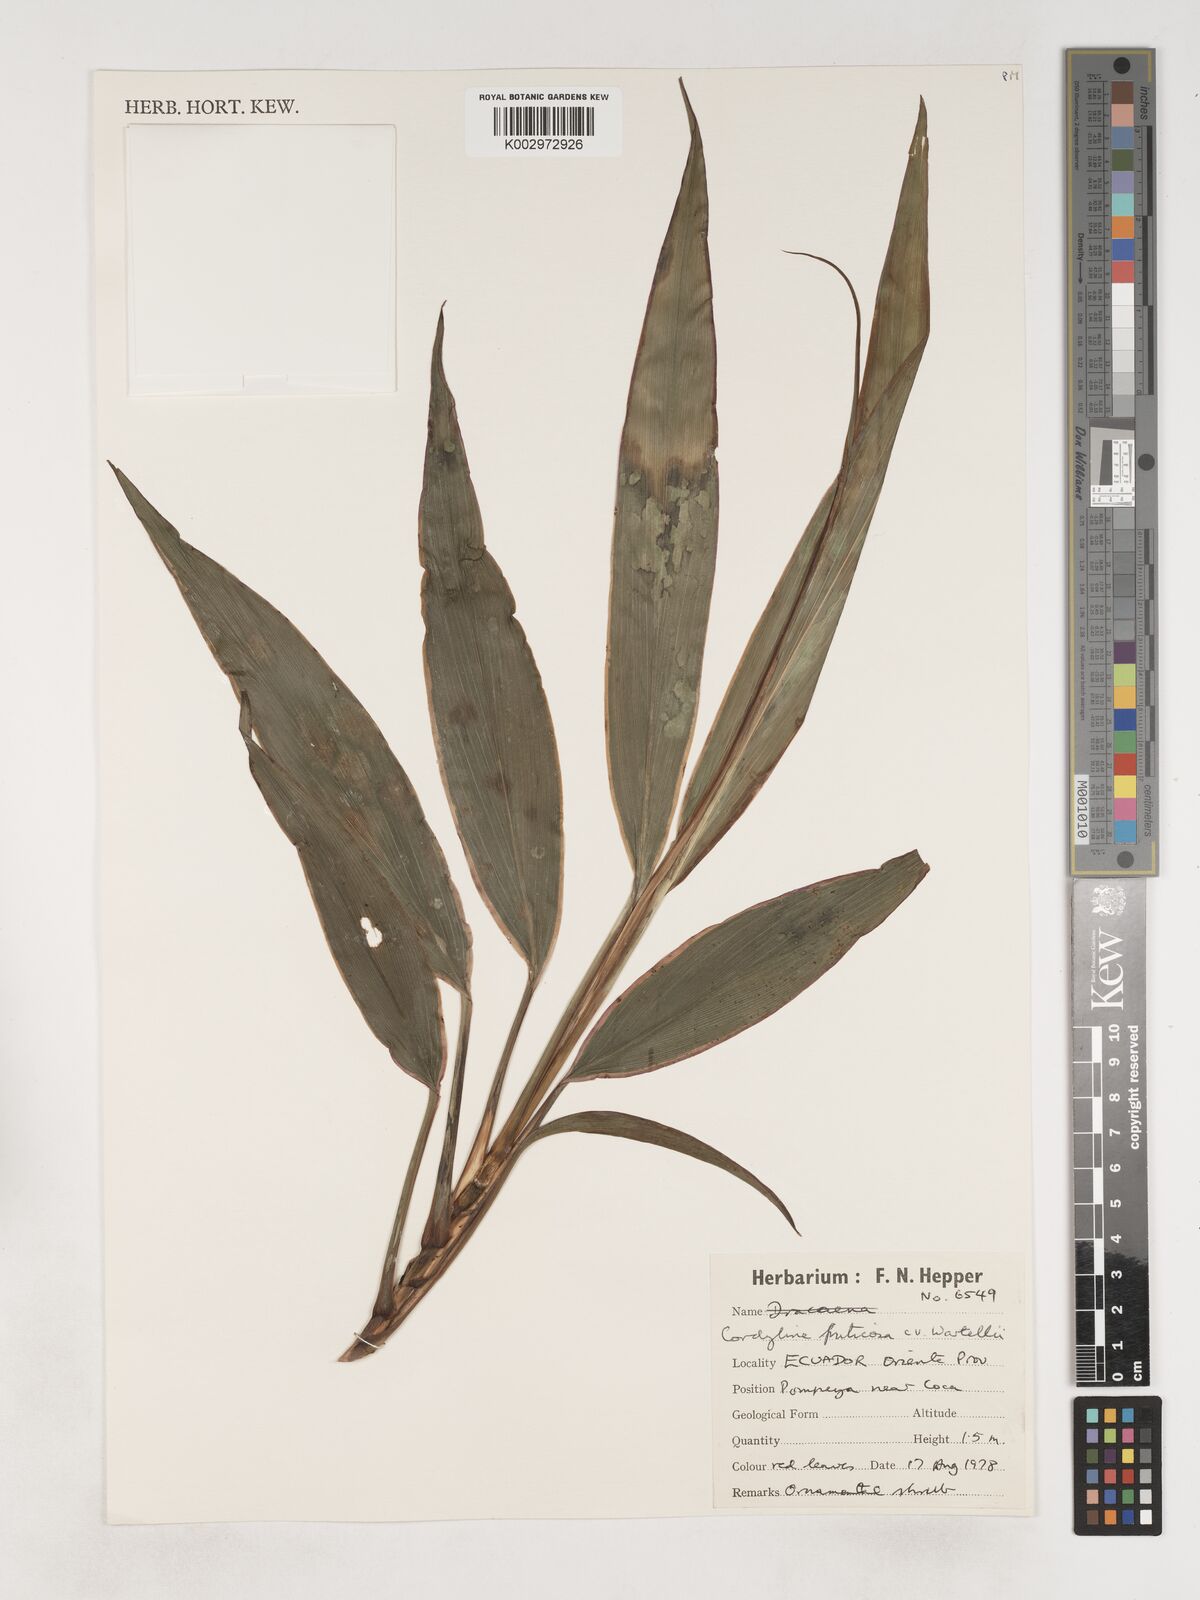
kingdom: Plantae
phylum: Tracheophyta
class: Liliopsida
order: Asparagales
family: Asparagaceae
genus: Cordyline
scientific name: Cordyline congesta
